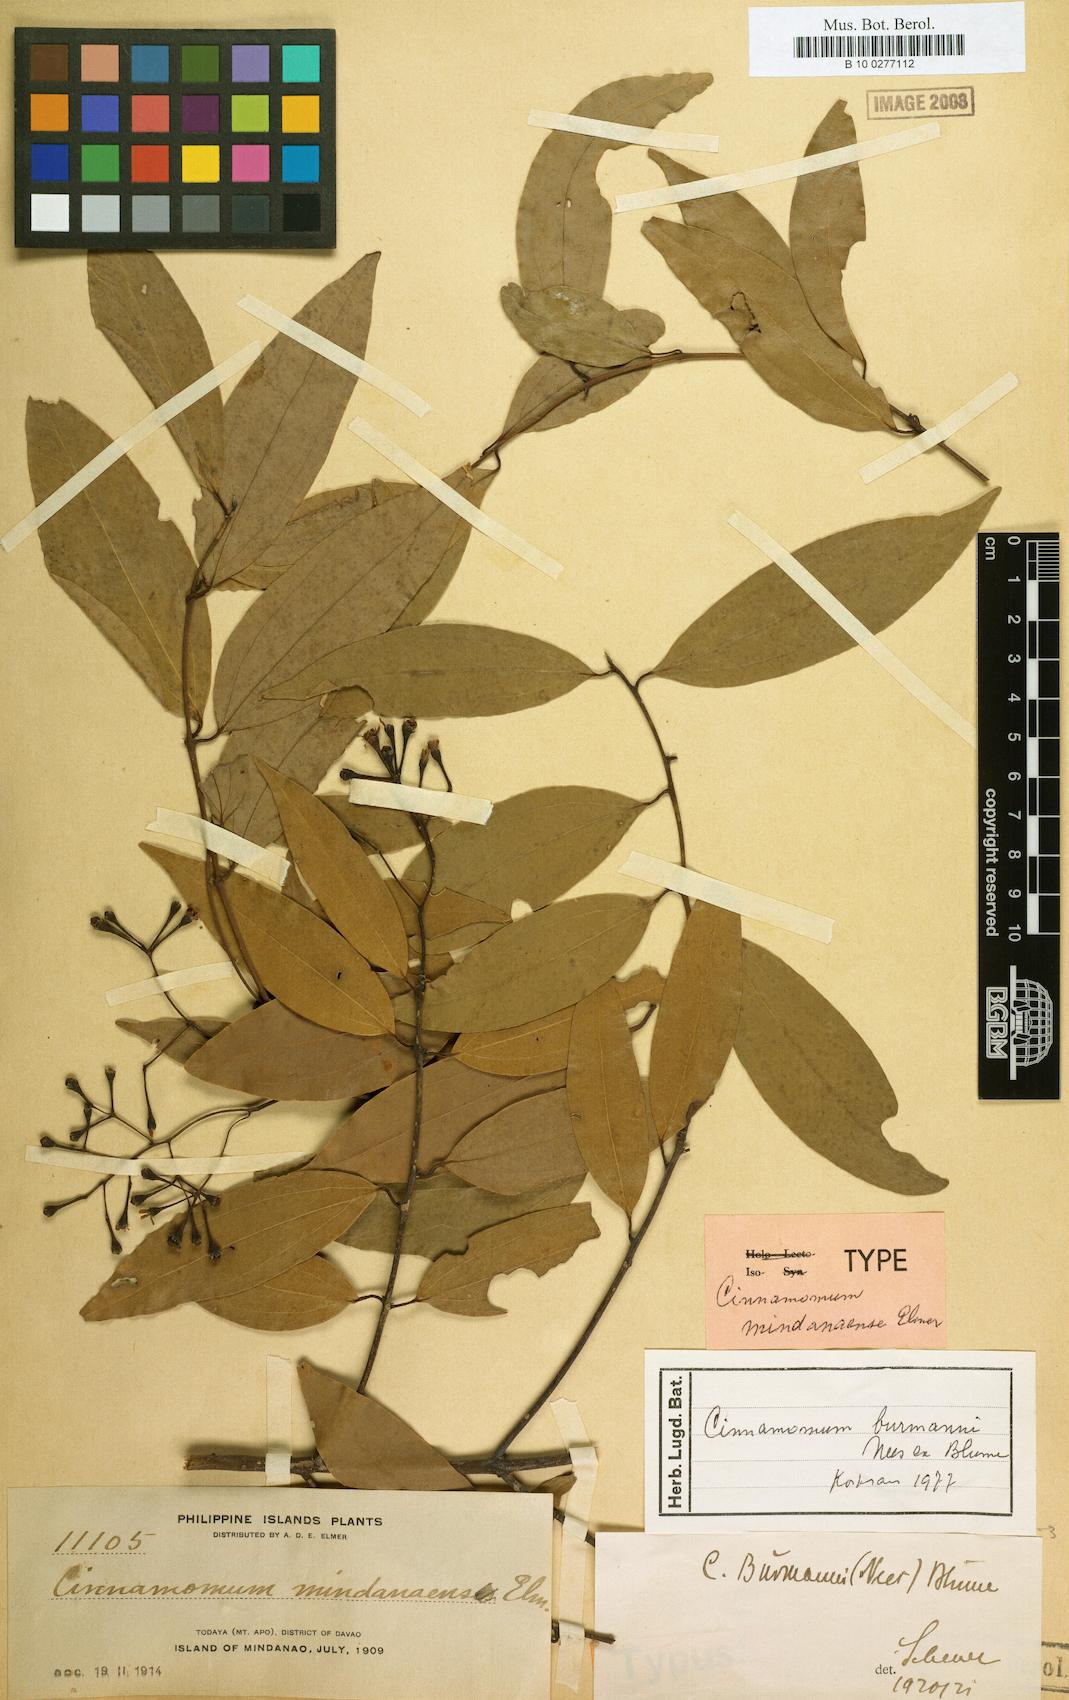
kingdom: Plantae
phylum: Tracheophyta
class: Magnoliopsida
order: Laurales
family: Lauraceae
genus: Cinnamomum
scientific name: Cinnamomum burmanni
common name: Padang cassia
